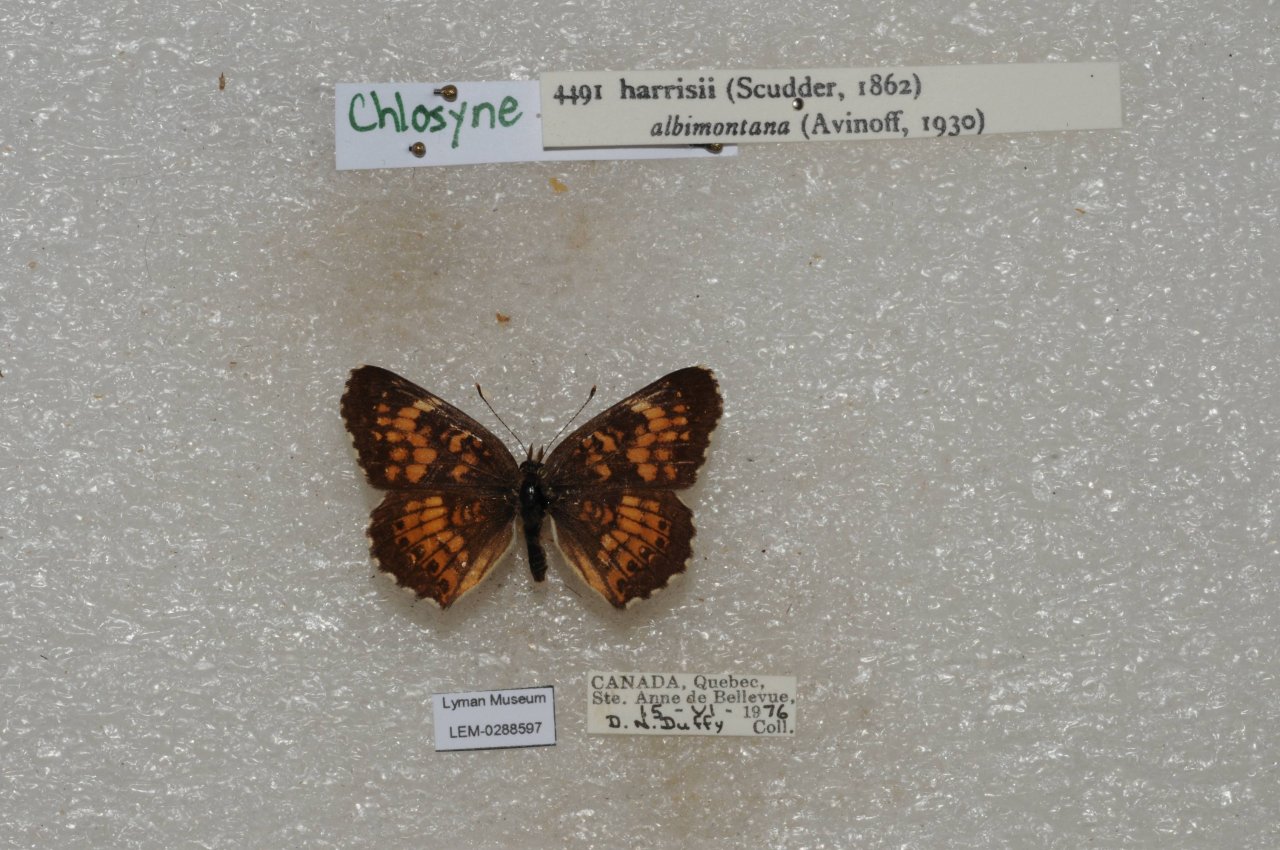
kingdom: Animalia
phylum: Arthropoda
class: Insecta
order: Lepidoptera
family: Nymphalidae
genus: Chlosyne
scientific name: Chlosyne harrisii
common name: Harris's Checkerspot
